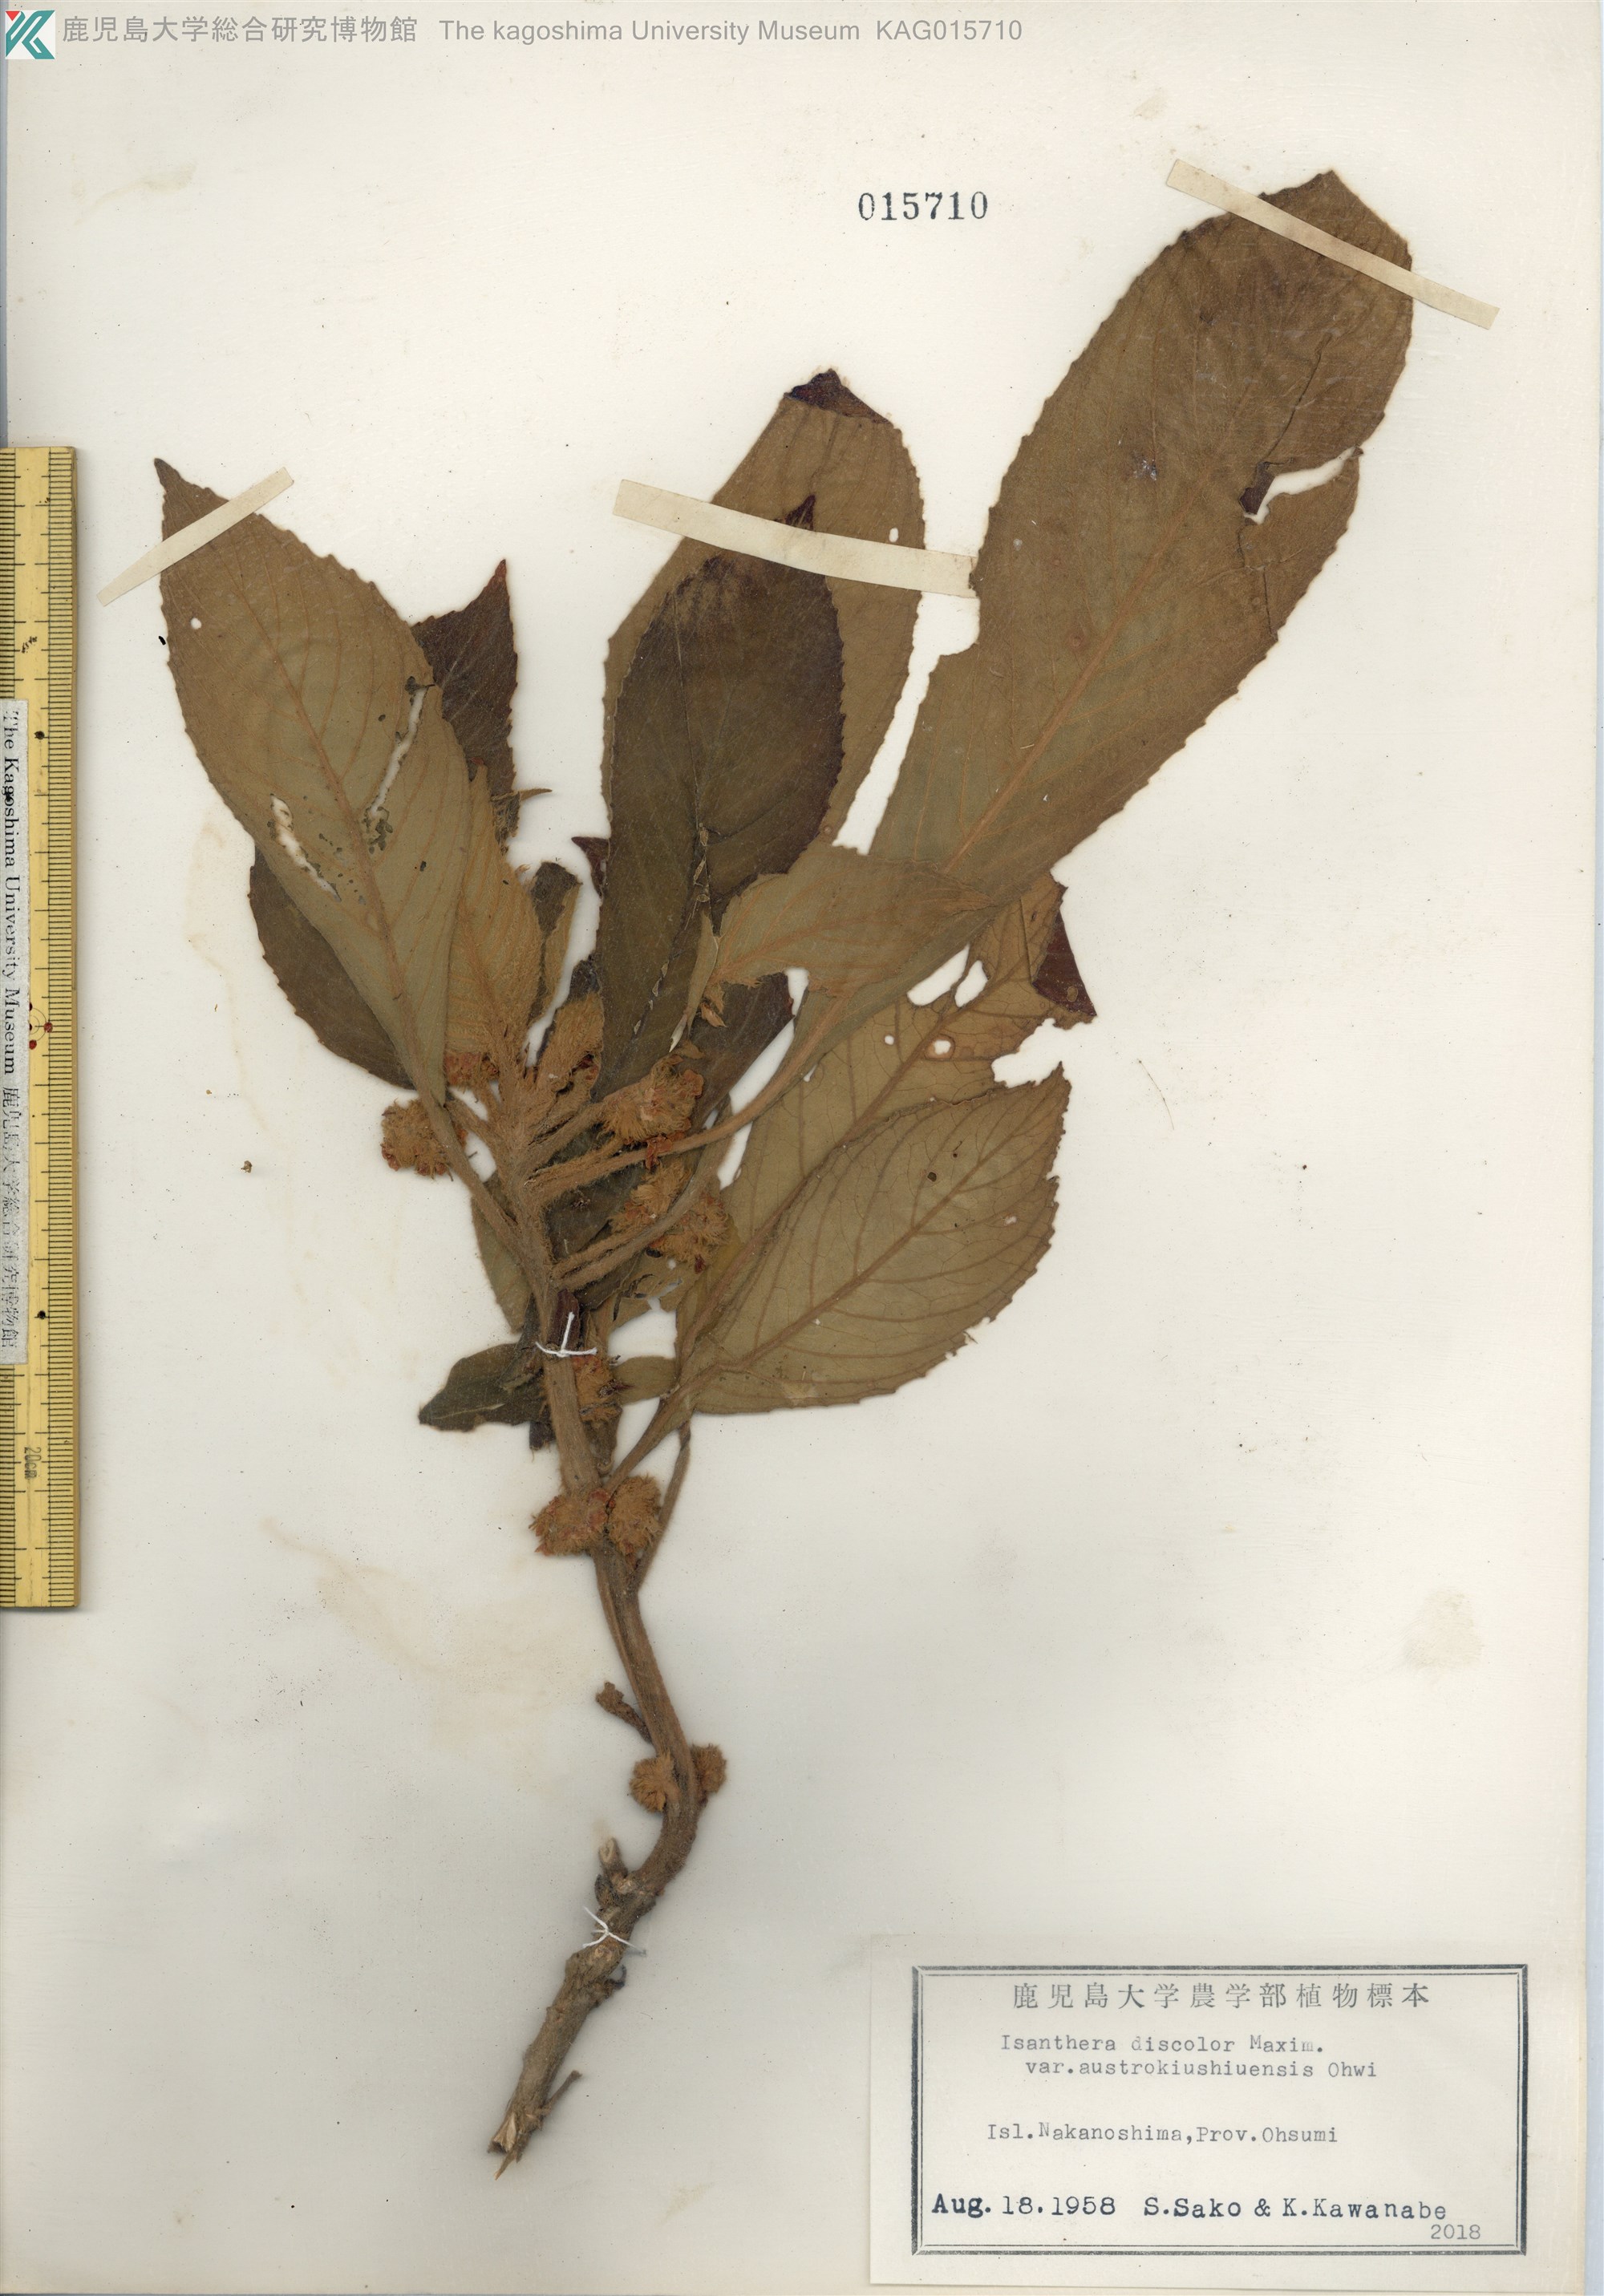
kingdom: Plantae
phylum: Tracheophyta
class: Magnoliopsida
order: Lamiales
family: Gesneriaceae
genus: Rhynchotechum
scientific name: Rhynchotechum discolor
